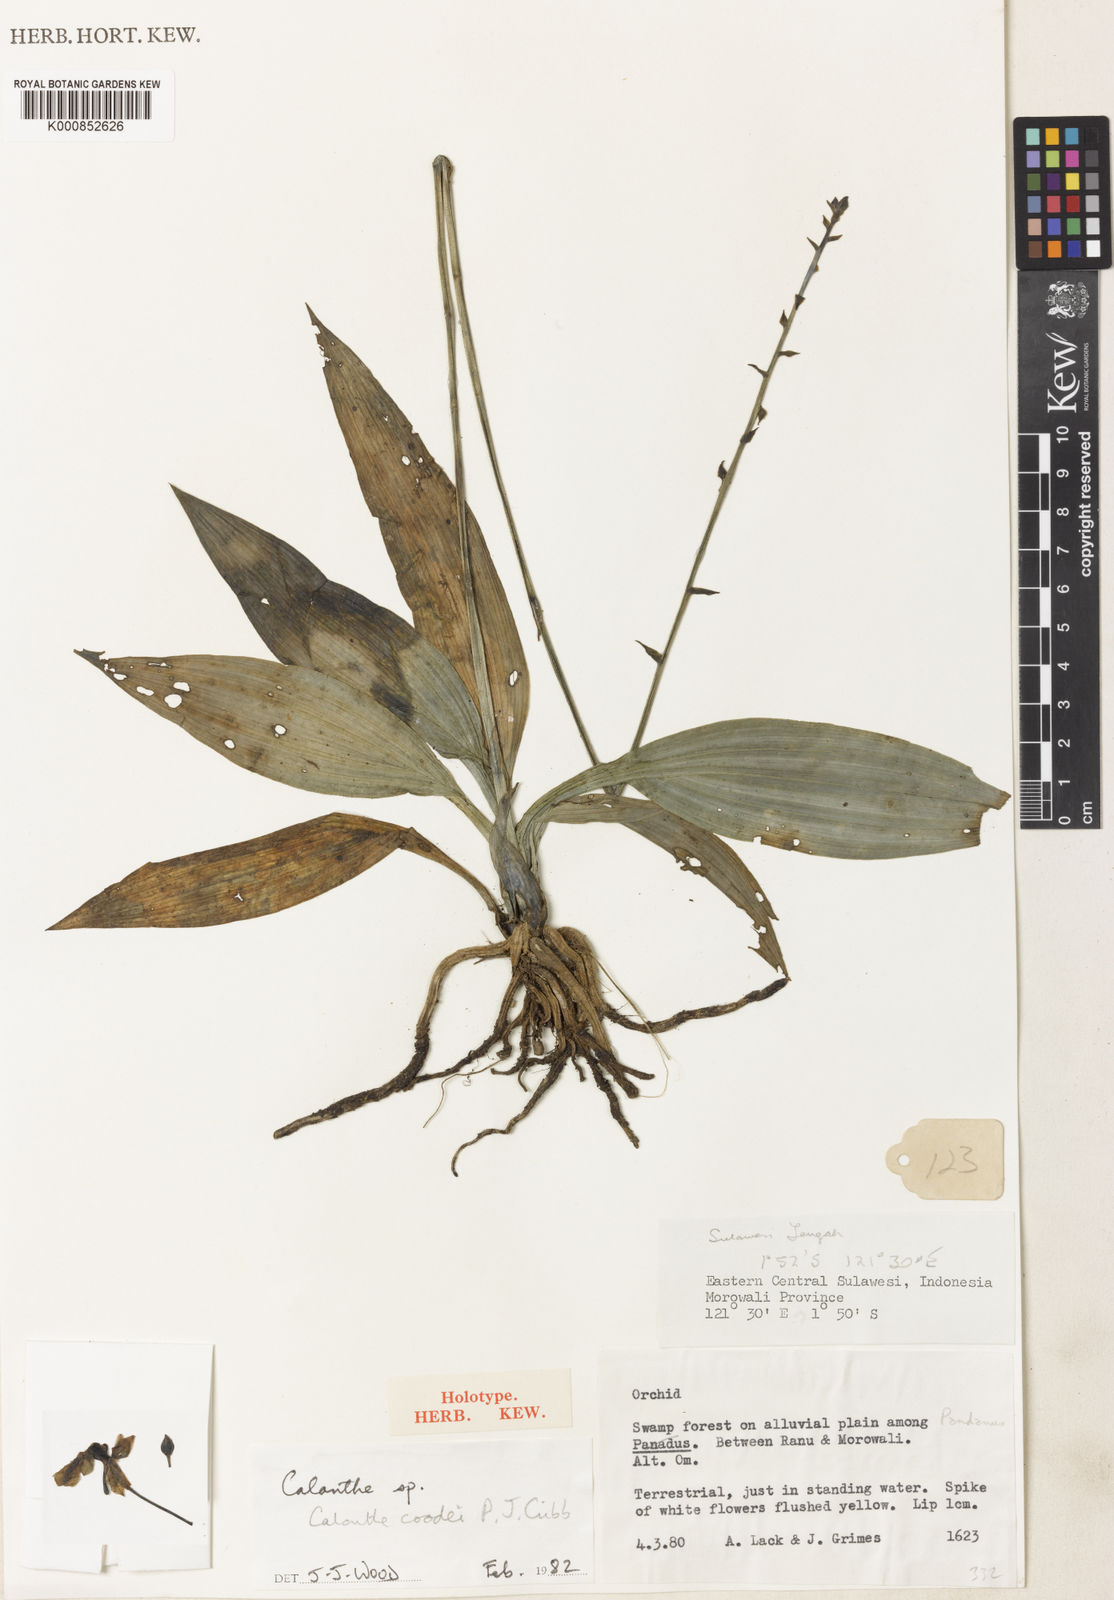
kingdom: Plantae
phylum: Tracheophyta
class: Liliopsida
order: Asparagales
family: Orchidaceae
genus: Calanthe
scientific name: Calanthe coodei
